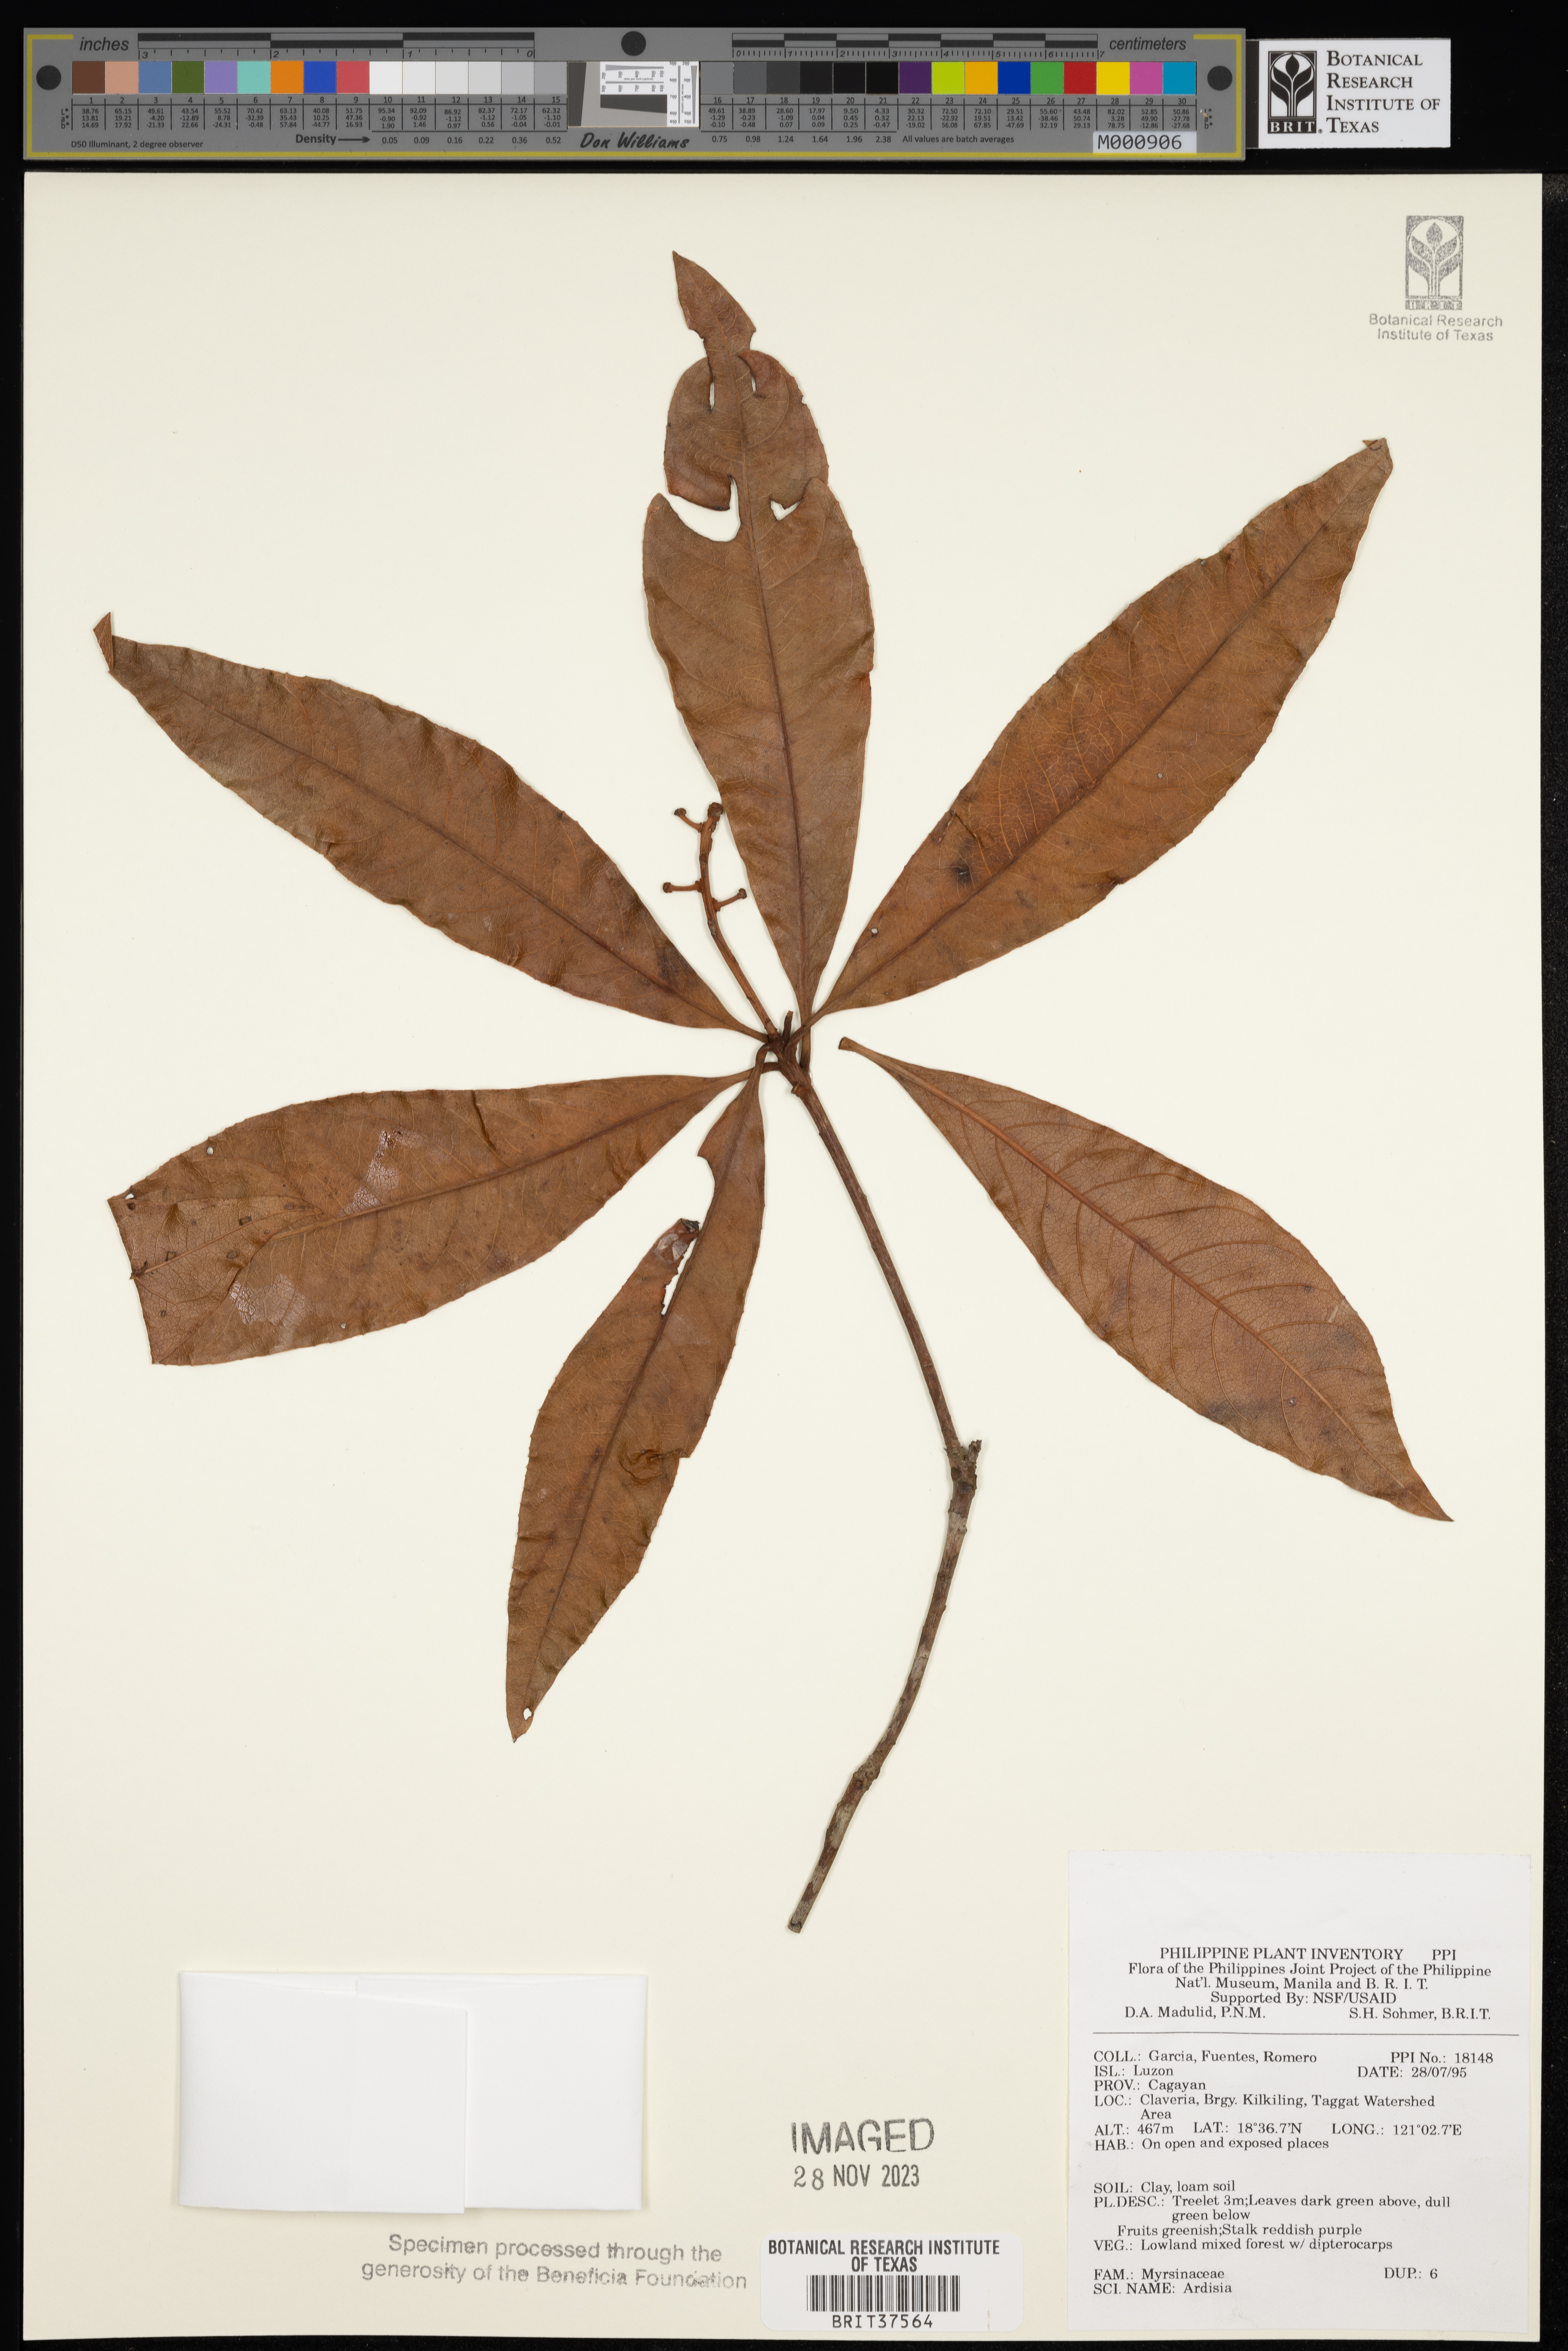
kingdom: Plantae
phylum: Tracheophyta
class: Magnoliopsida
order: Ericales
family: Primulaceae
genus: Ardisia
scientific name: Ardisia
